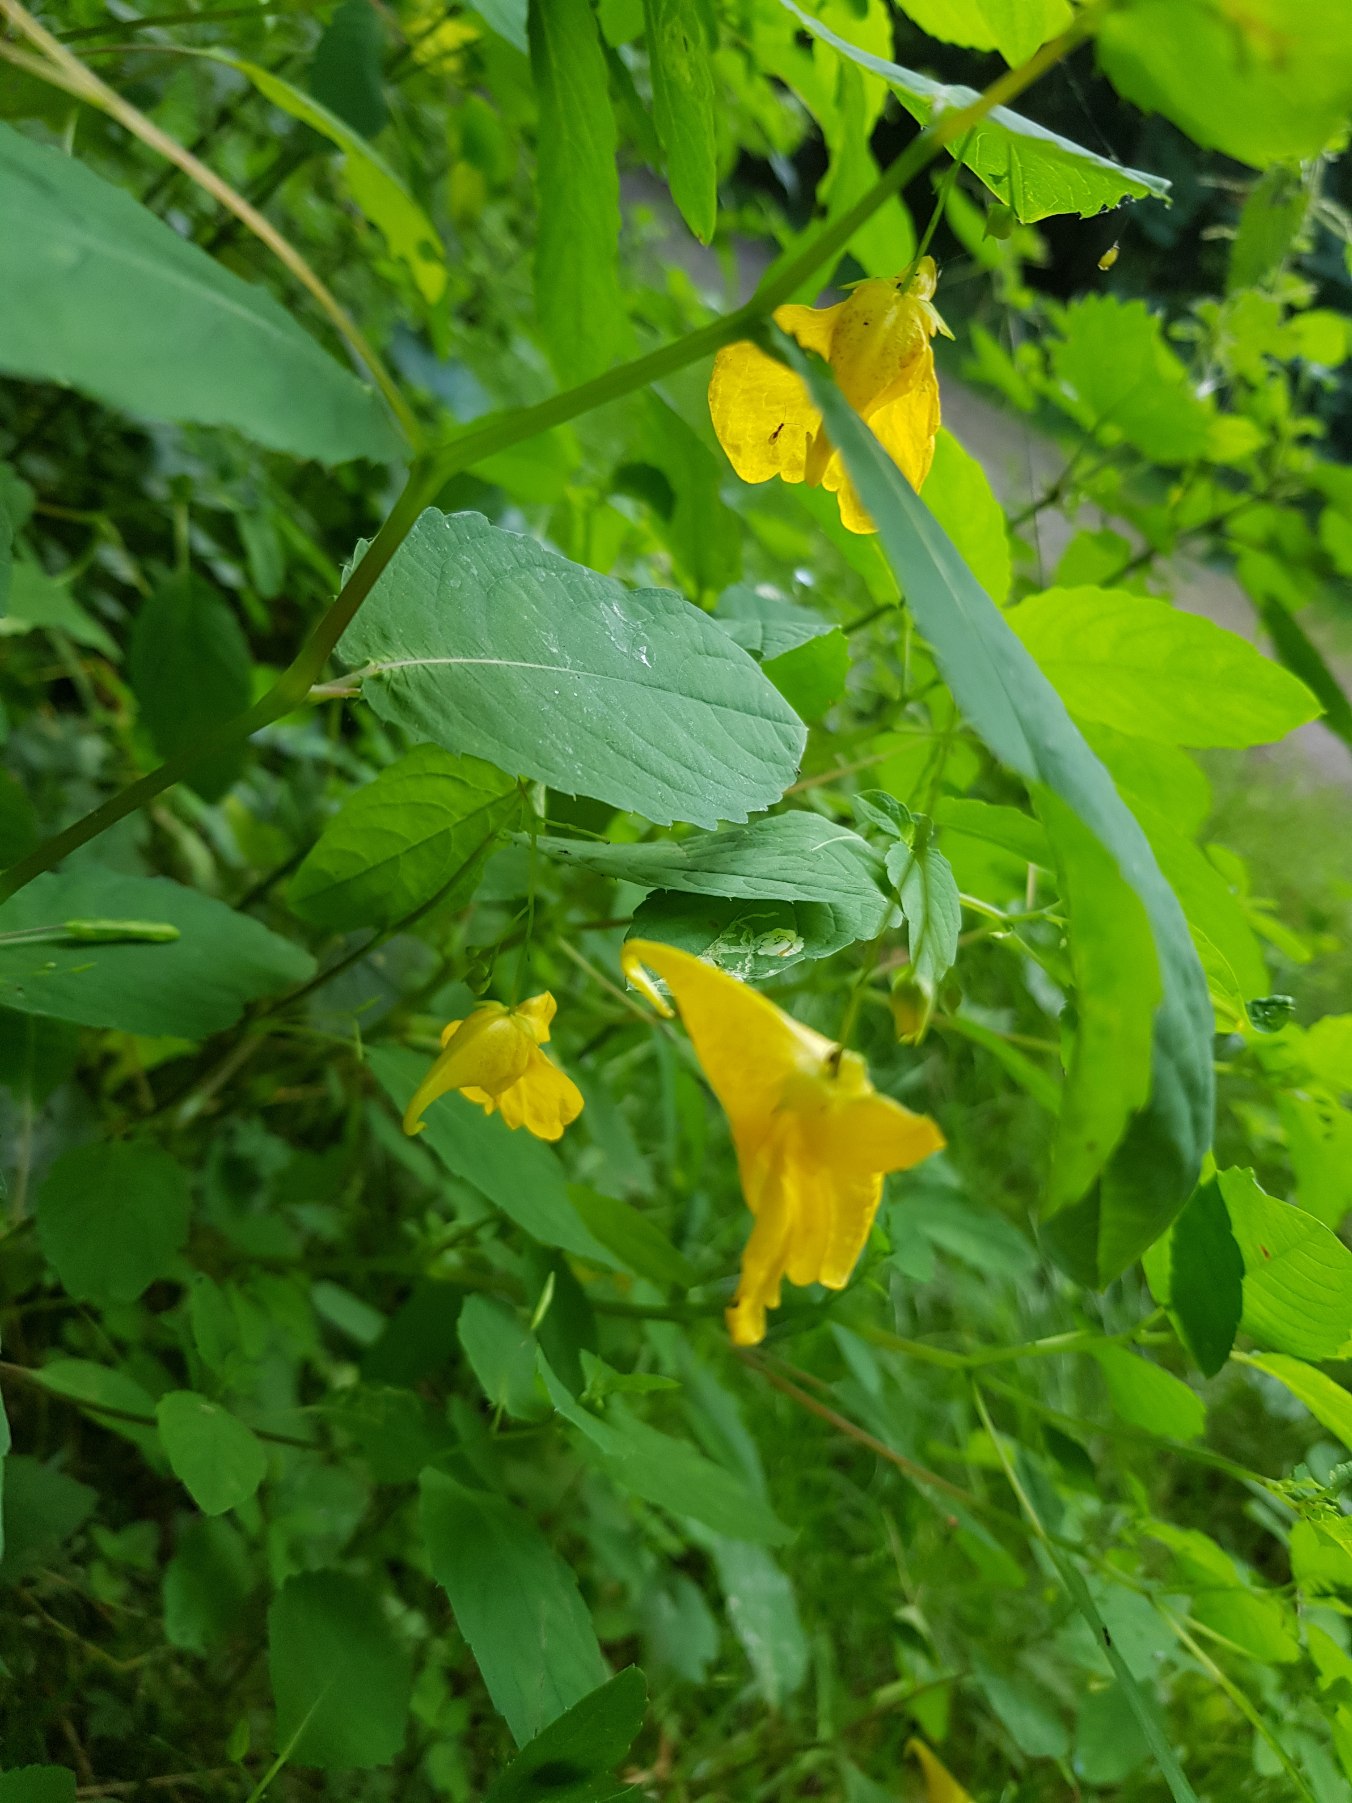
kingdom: Plantae
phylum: Tracheophyta
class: Magnoliopsida
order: Ericales
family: Balsaminaceae
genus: Impatiens
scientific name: Impatiens noli-tangere
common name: Spring-balsamin
